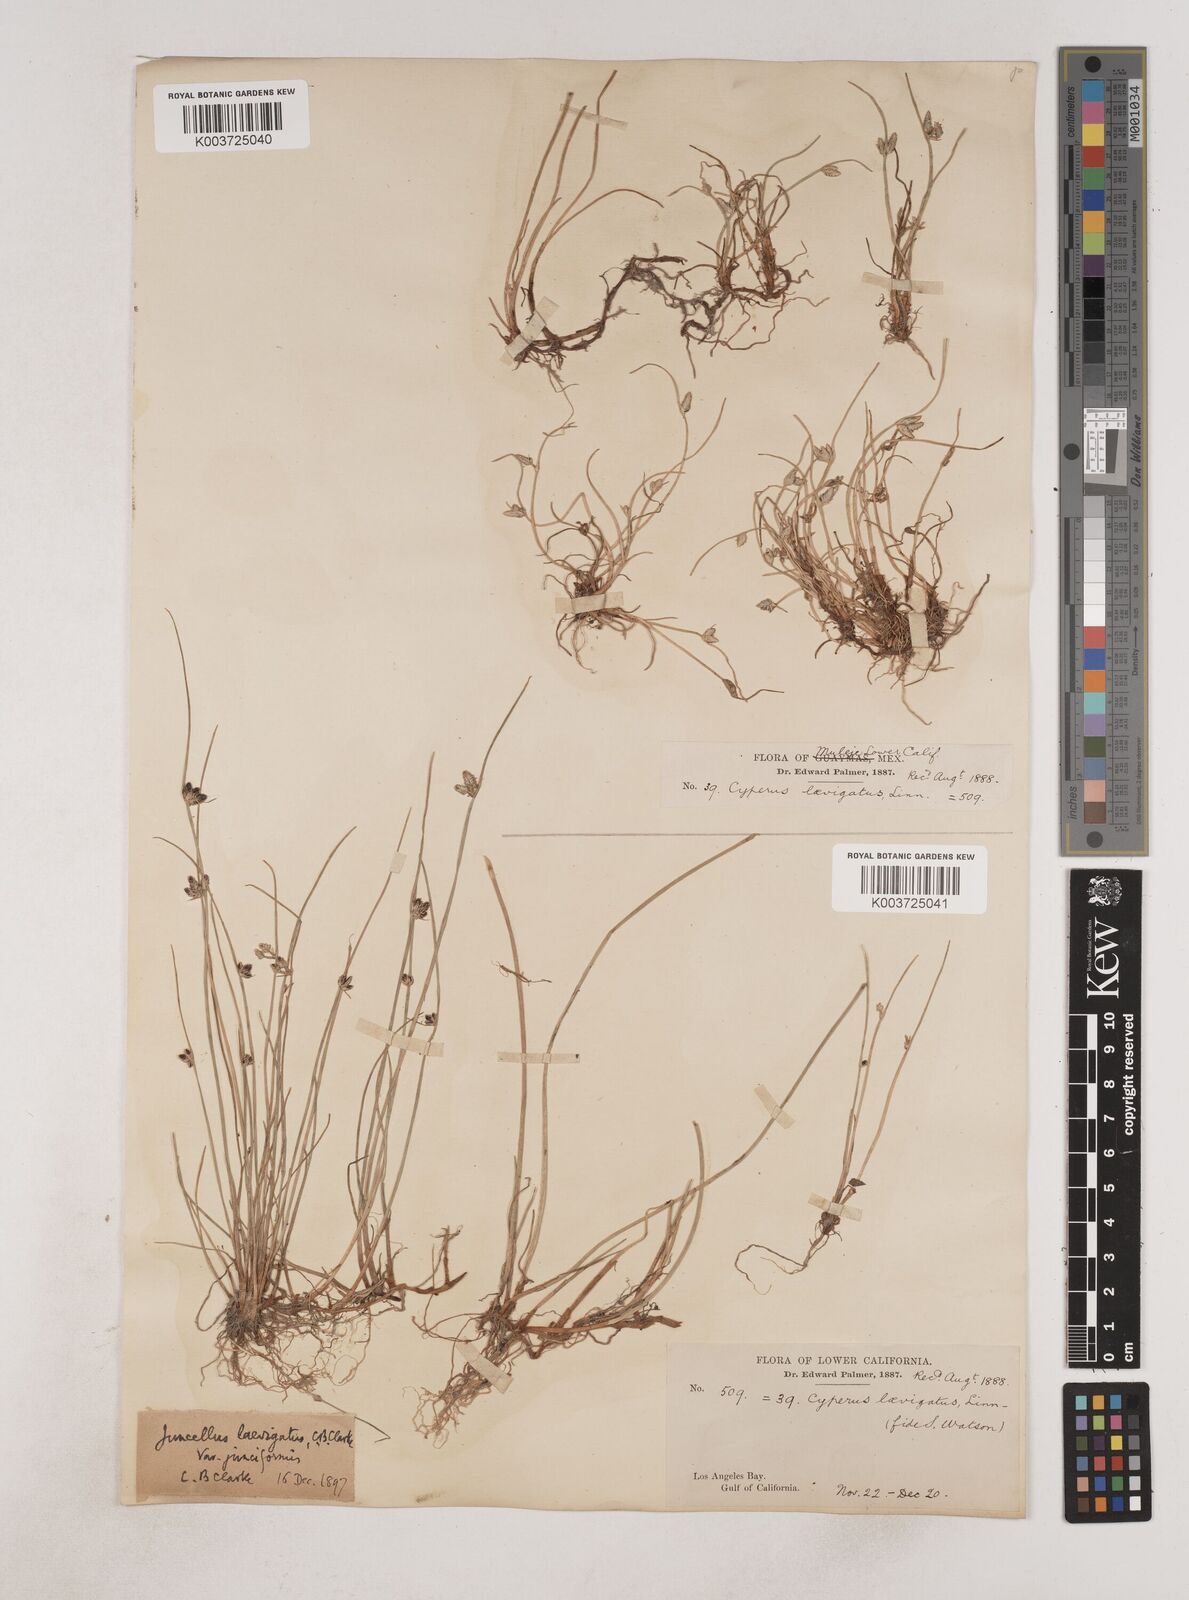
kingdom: Plantae
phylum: Tracheophyta
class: Liliopsida
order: Poales
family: Cyperaceae
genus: Cyperus
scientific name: Cyperus laevigatus
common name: Smooth flat sedge
